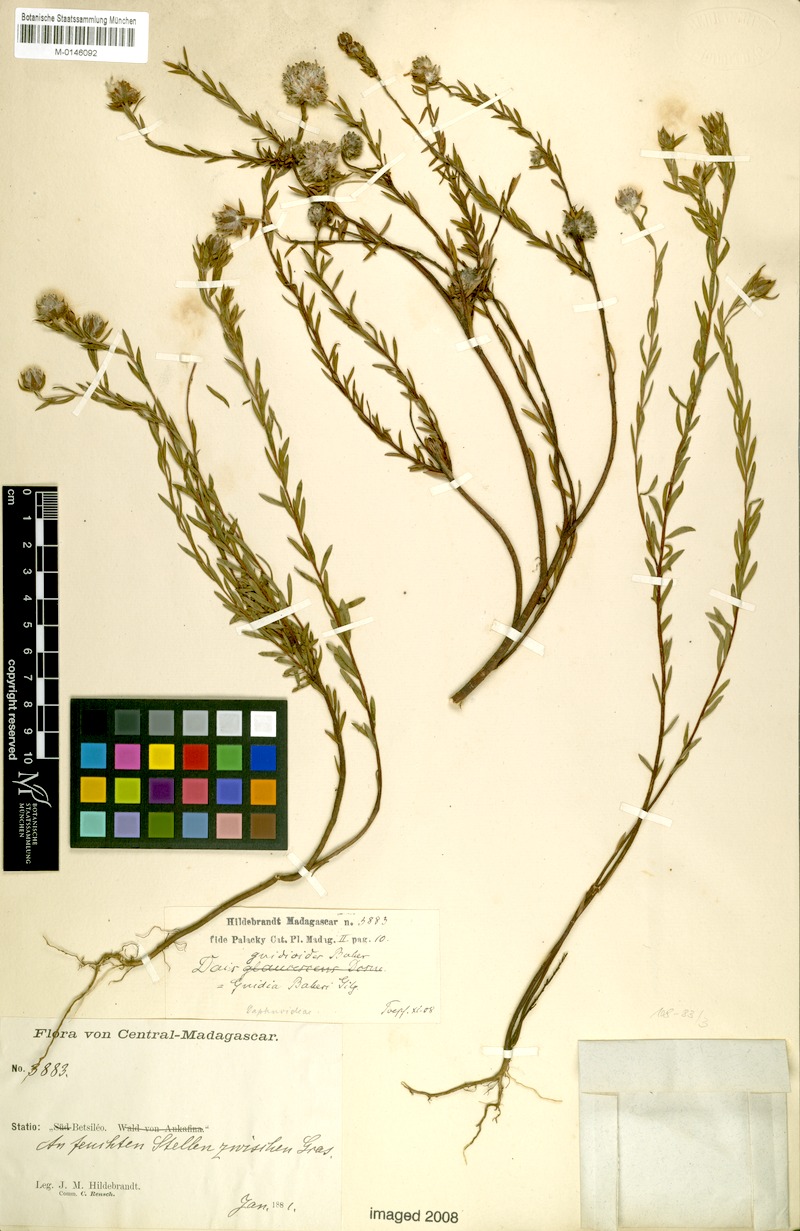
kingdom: Plantae
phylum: Tracheophyta
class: Magnoliopsida
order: Malvales
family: Thymelaeaceae
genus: Gnidia
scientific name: Gnidia gnidioides
